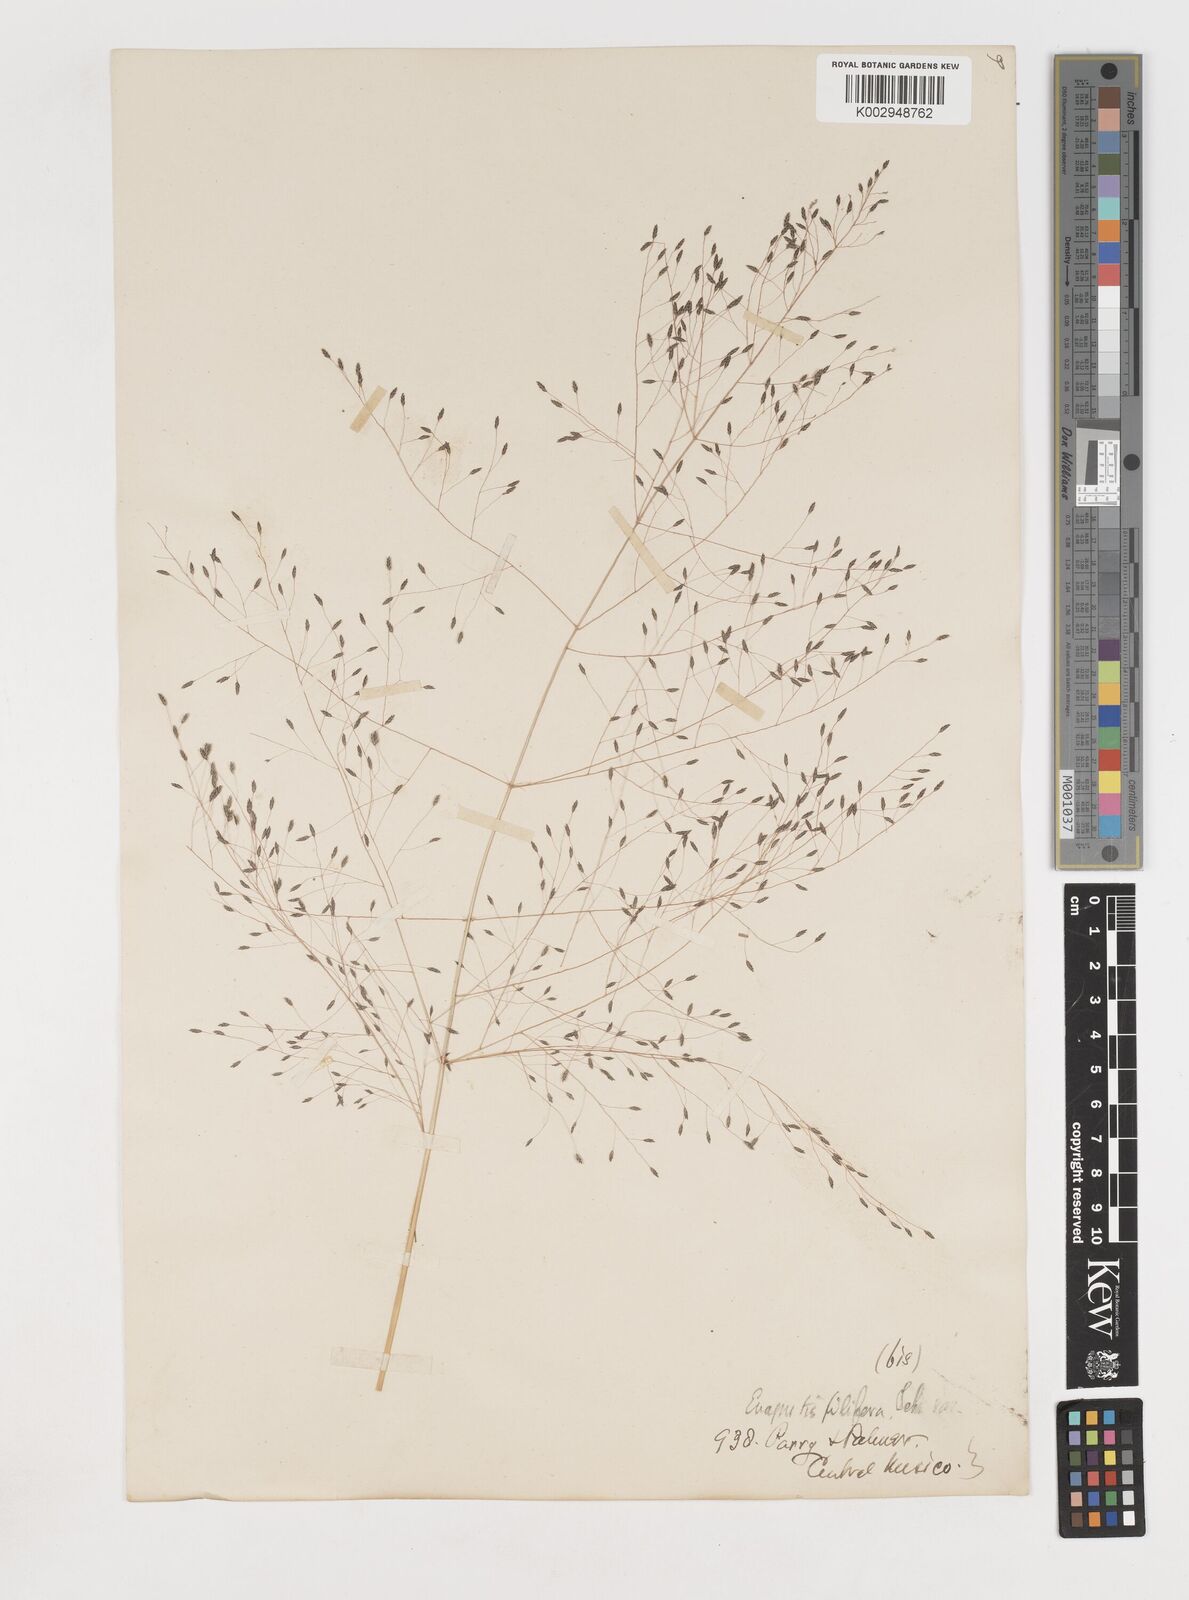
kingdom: Plantae
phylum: Tracheophyta
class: Liliopsida
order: Poales
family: Poaceae
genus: Eragrostis
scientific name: Eragrostis
